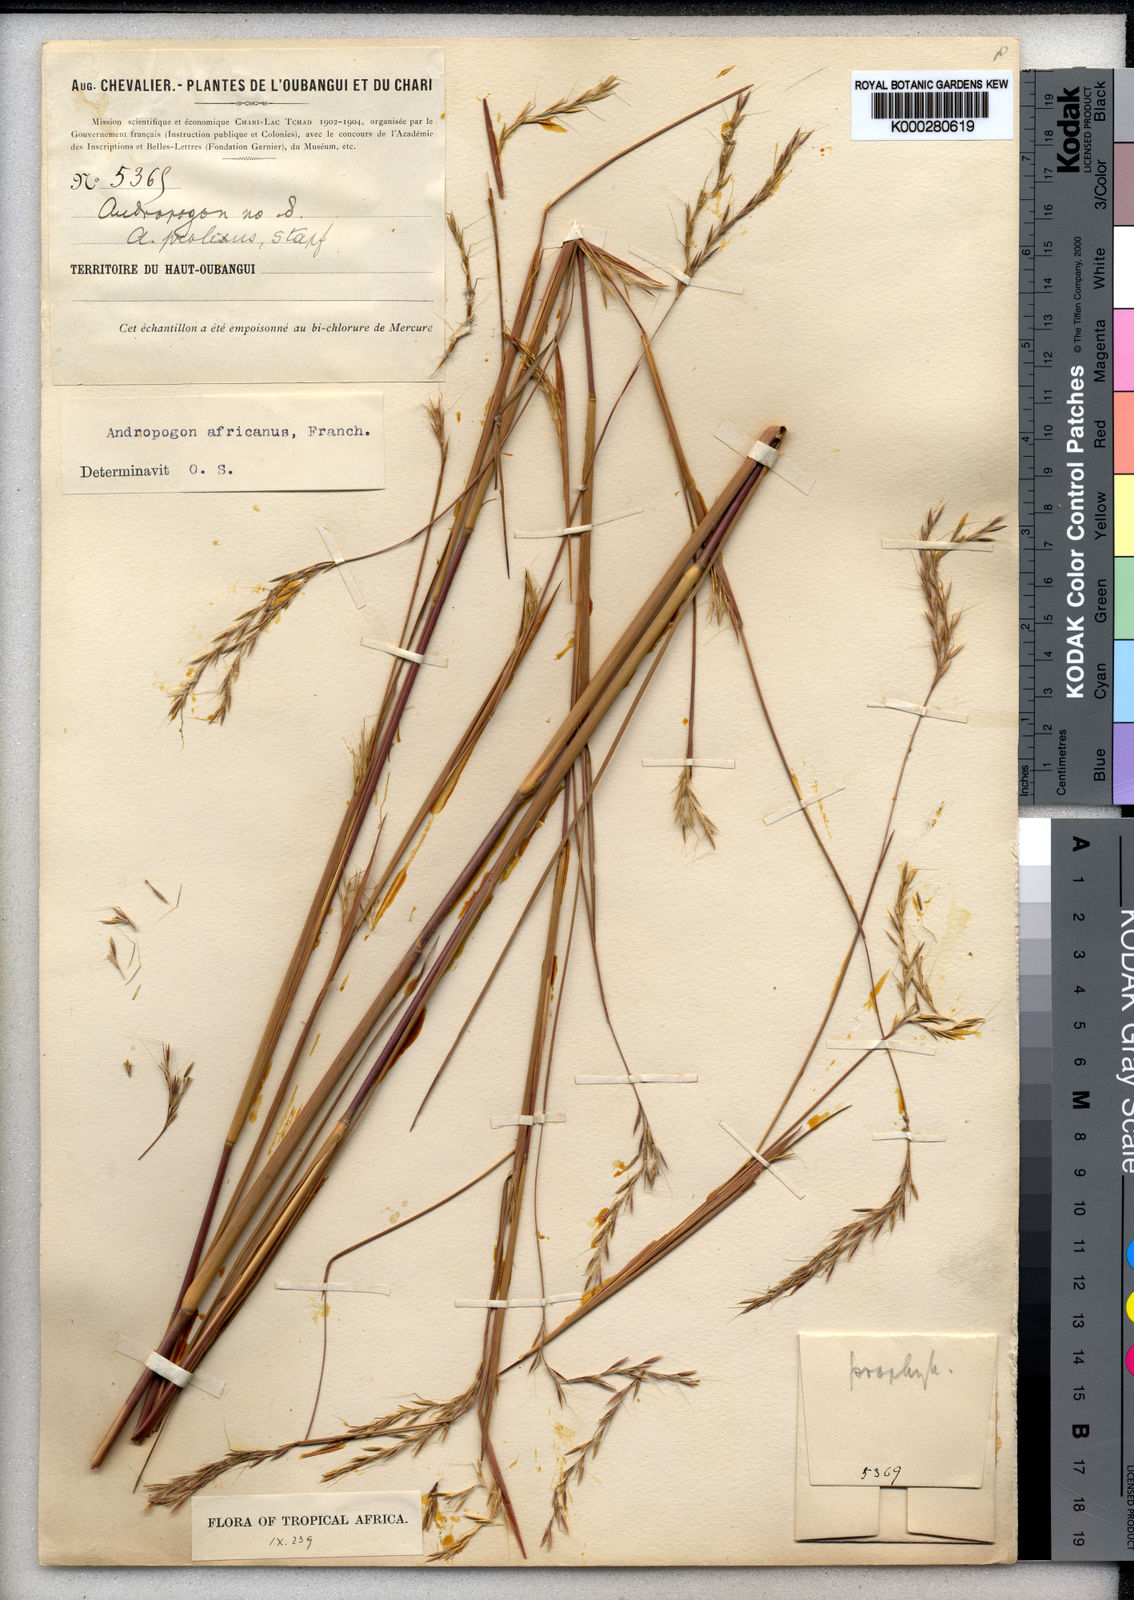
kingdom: Plantae
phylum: Tracheophyta
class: Liliopsida
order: Poales
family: Poaceae
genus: Andropogon
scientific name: Andropogon africanus
